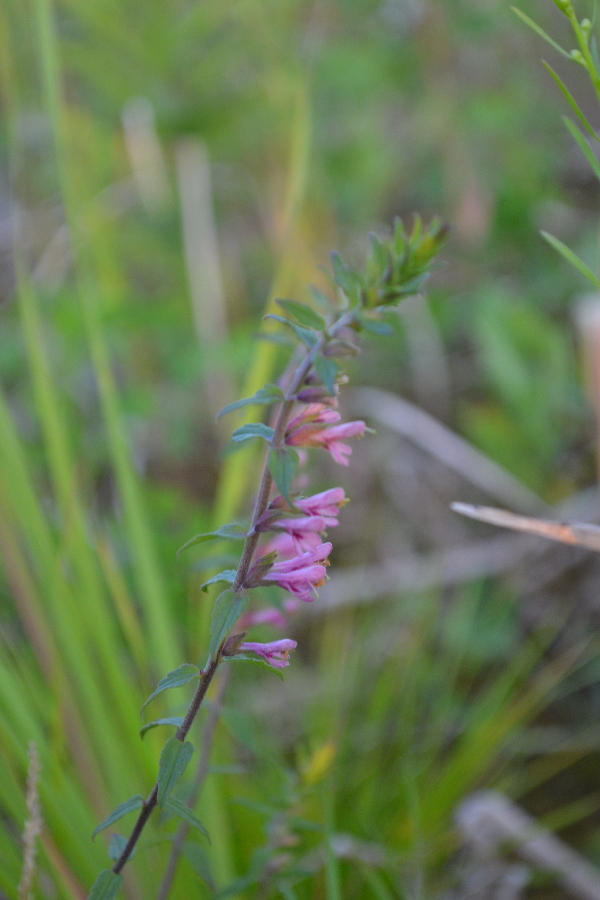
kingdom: Plantae
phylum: Tracheophyta
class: Magnoliopsida
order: Lamiales
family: Orobanchaceae
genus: Odontites
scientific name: Odontites vulgaris
